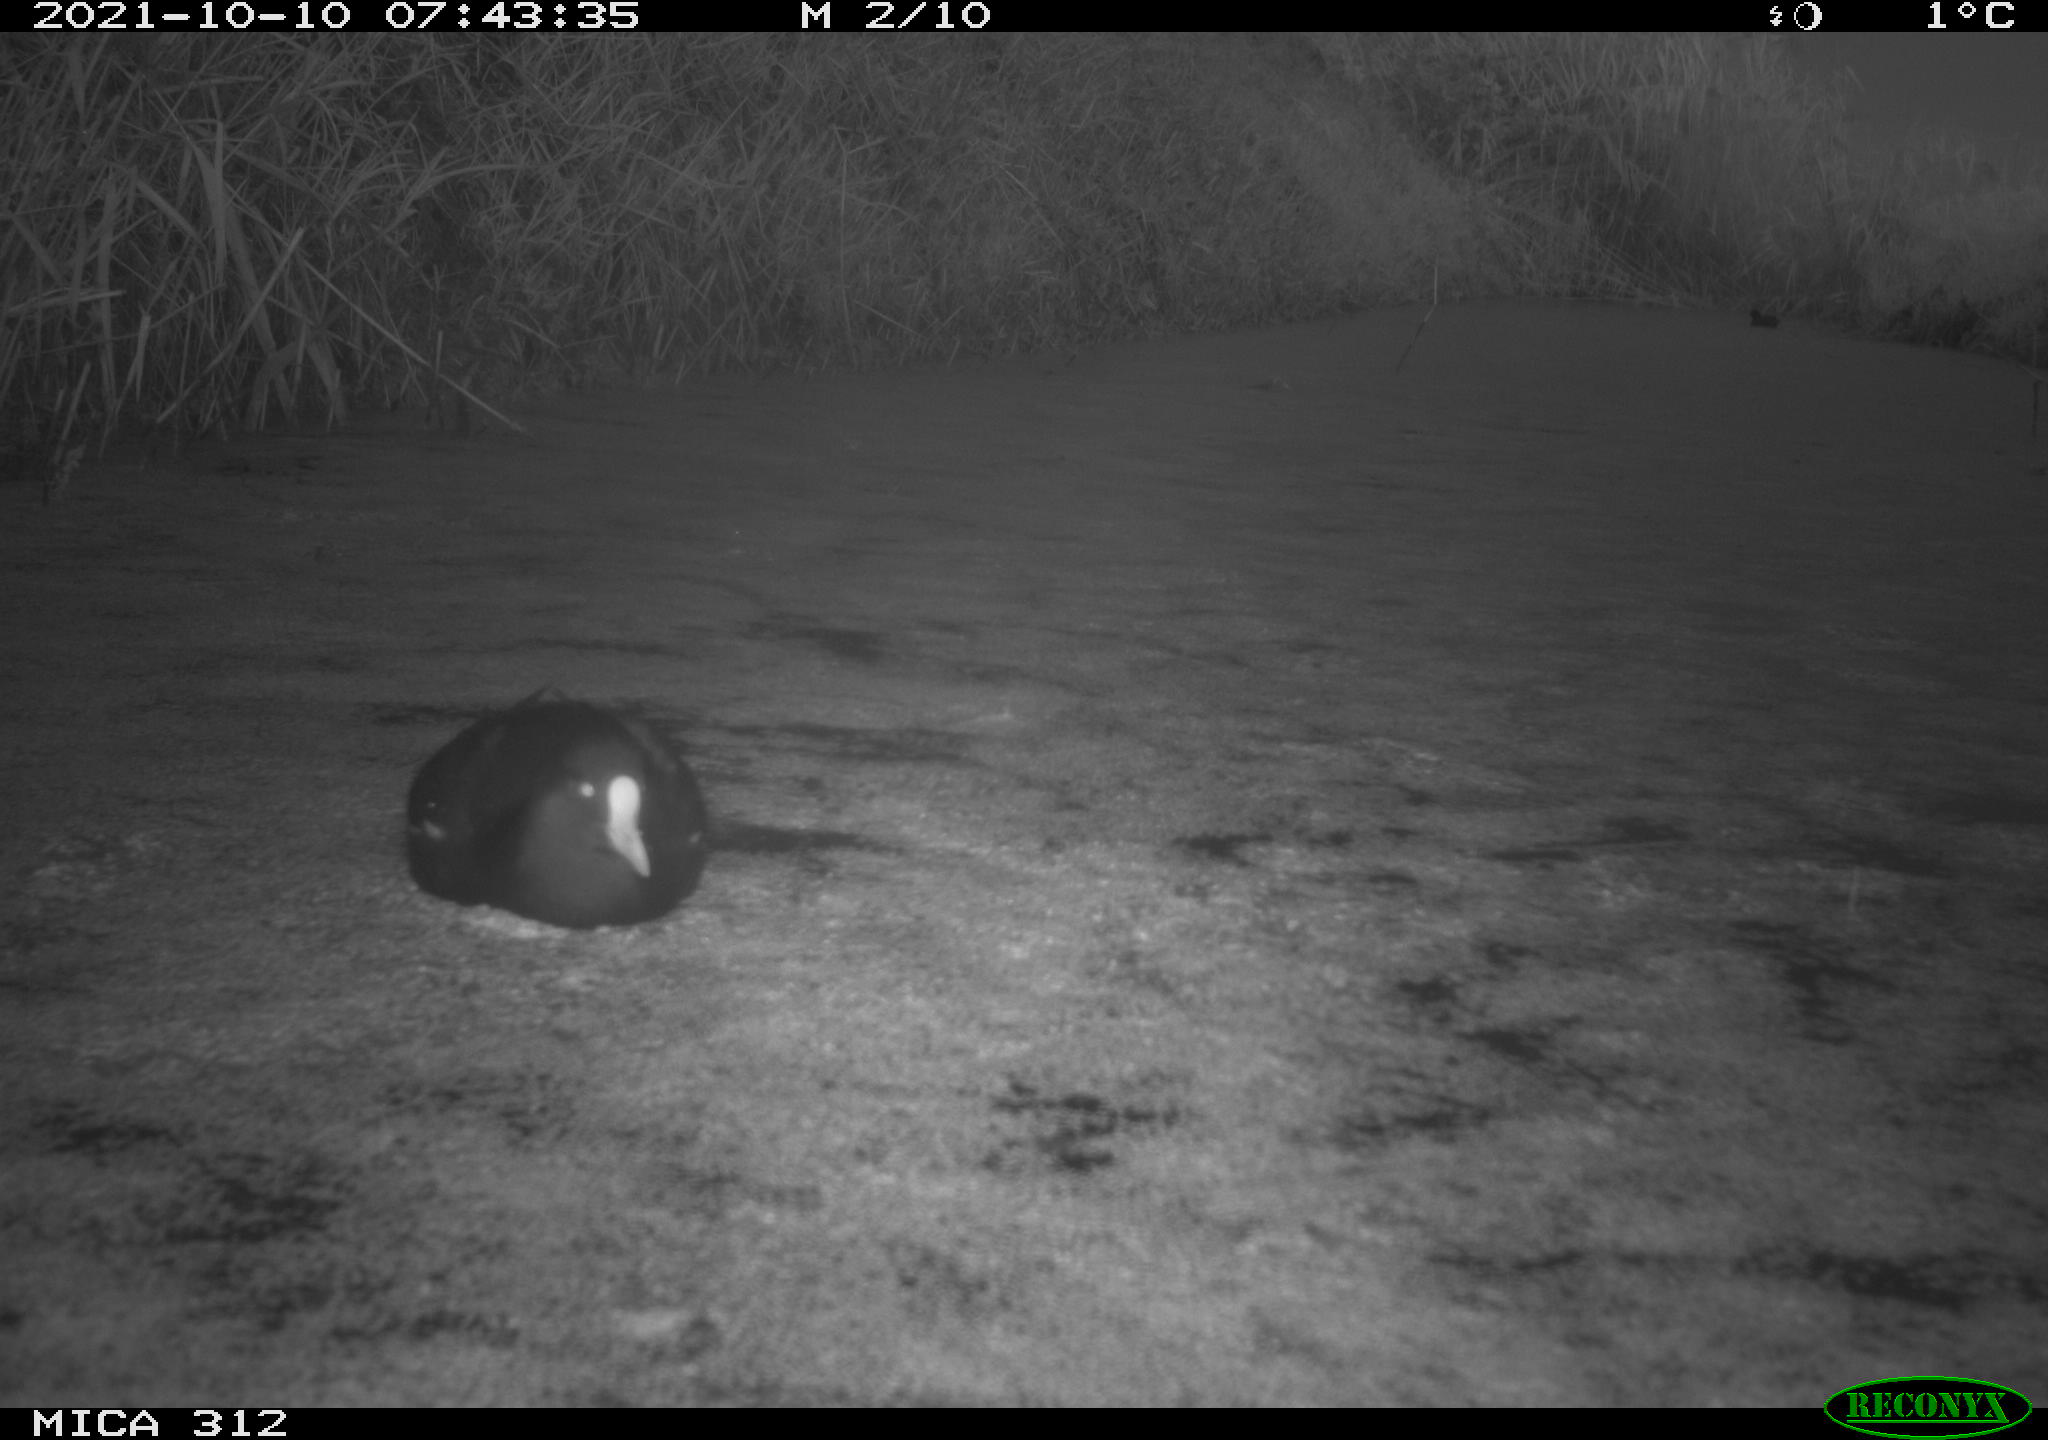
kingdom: Animalia
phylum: Chordata
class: Aves
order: Gruiformes
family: Rallidae
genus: Gallinula
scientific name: Gallinula chloropus
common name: Common moorhen
